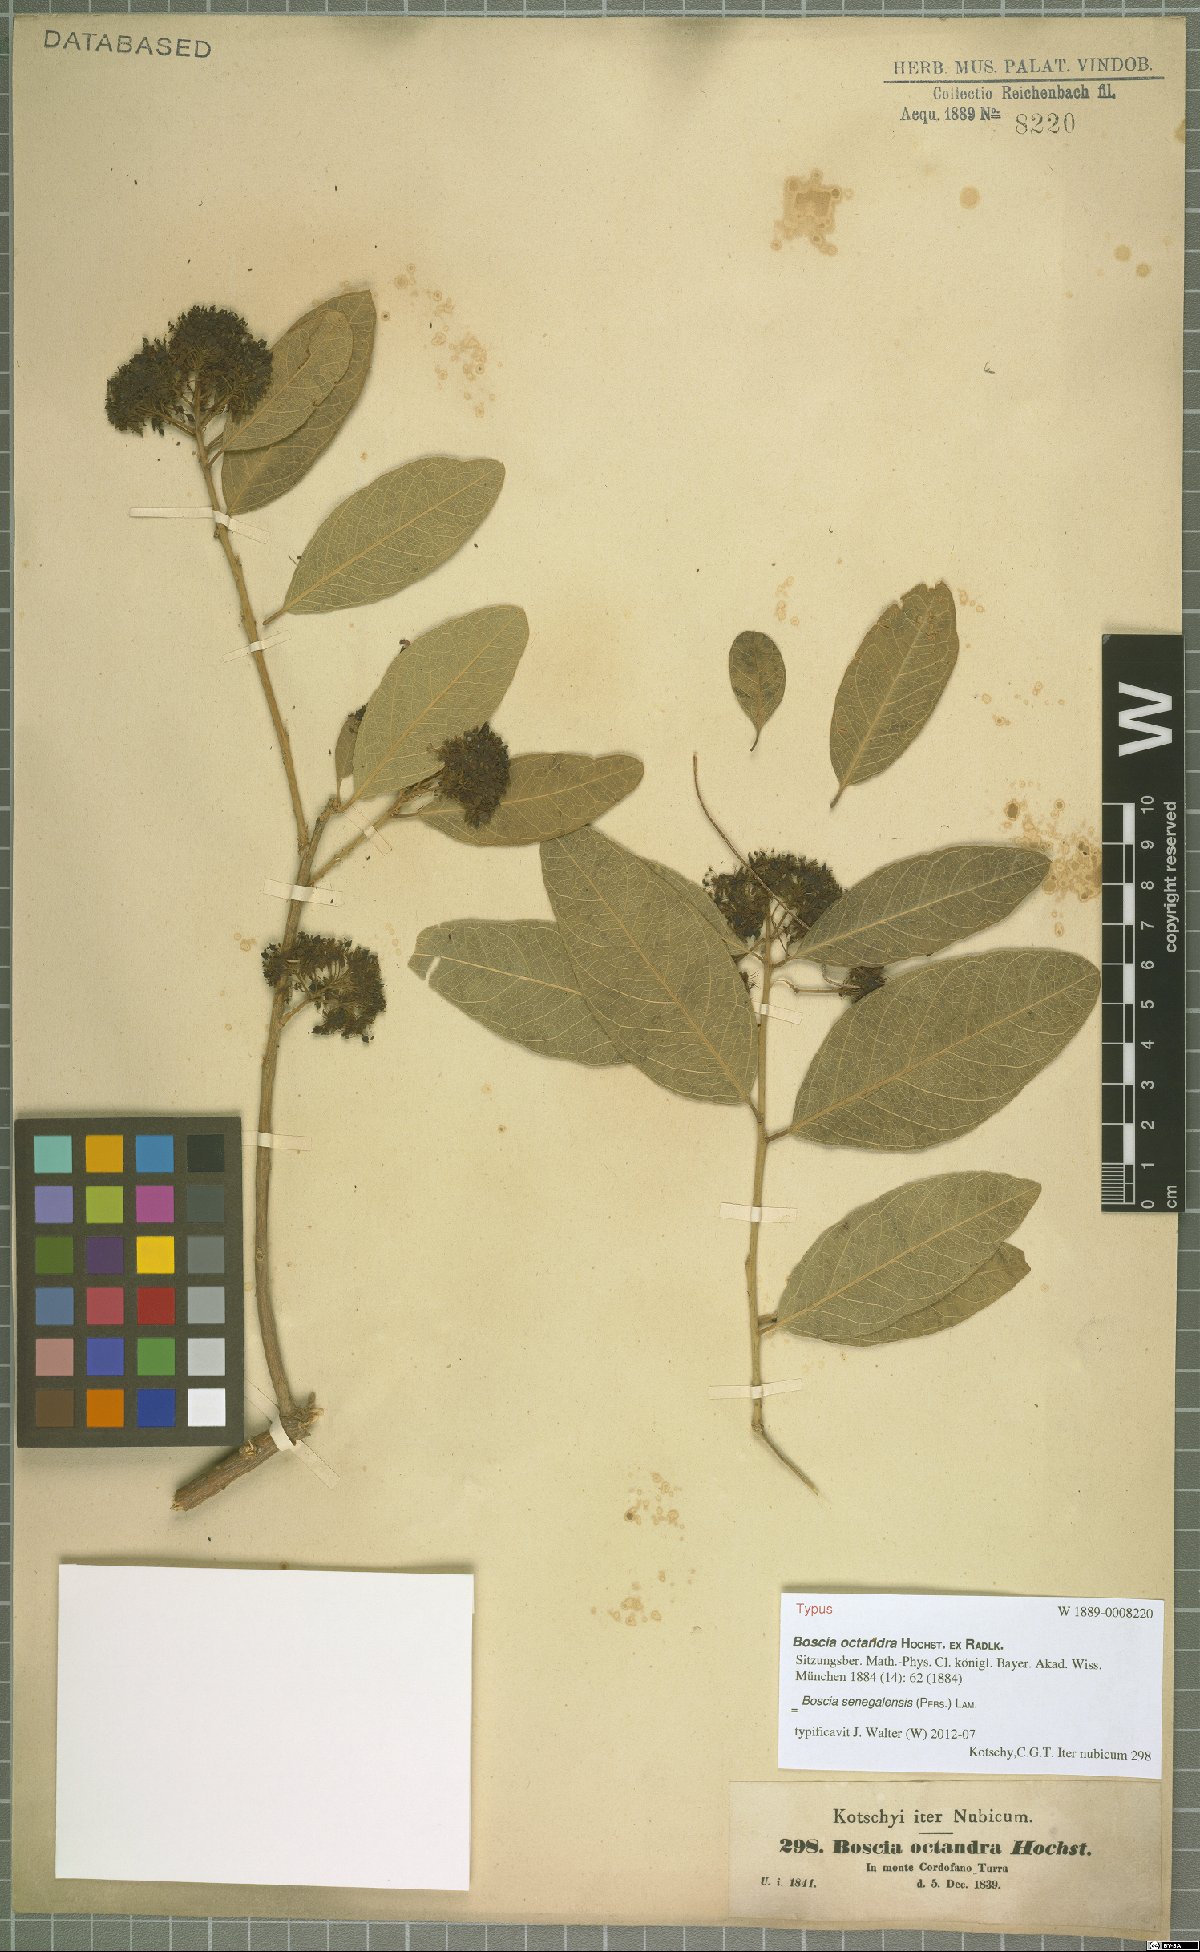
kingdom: Plantae
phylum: Tracheophyta
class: Magnoliopsida
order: Brassicales
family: Capparaceae
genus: Boscia
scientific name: Boscia senegalensis
